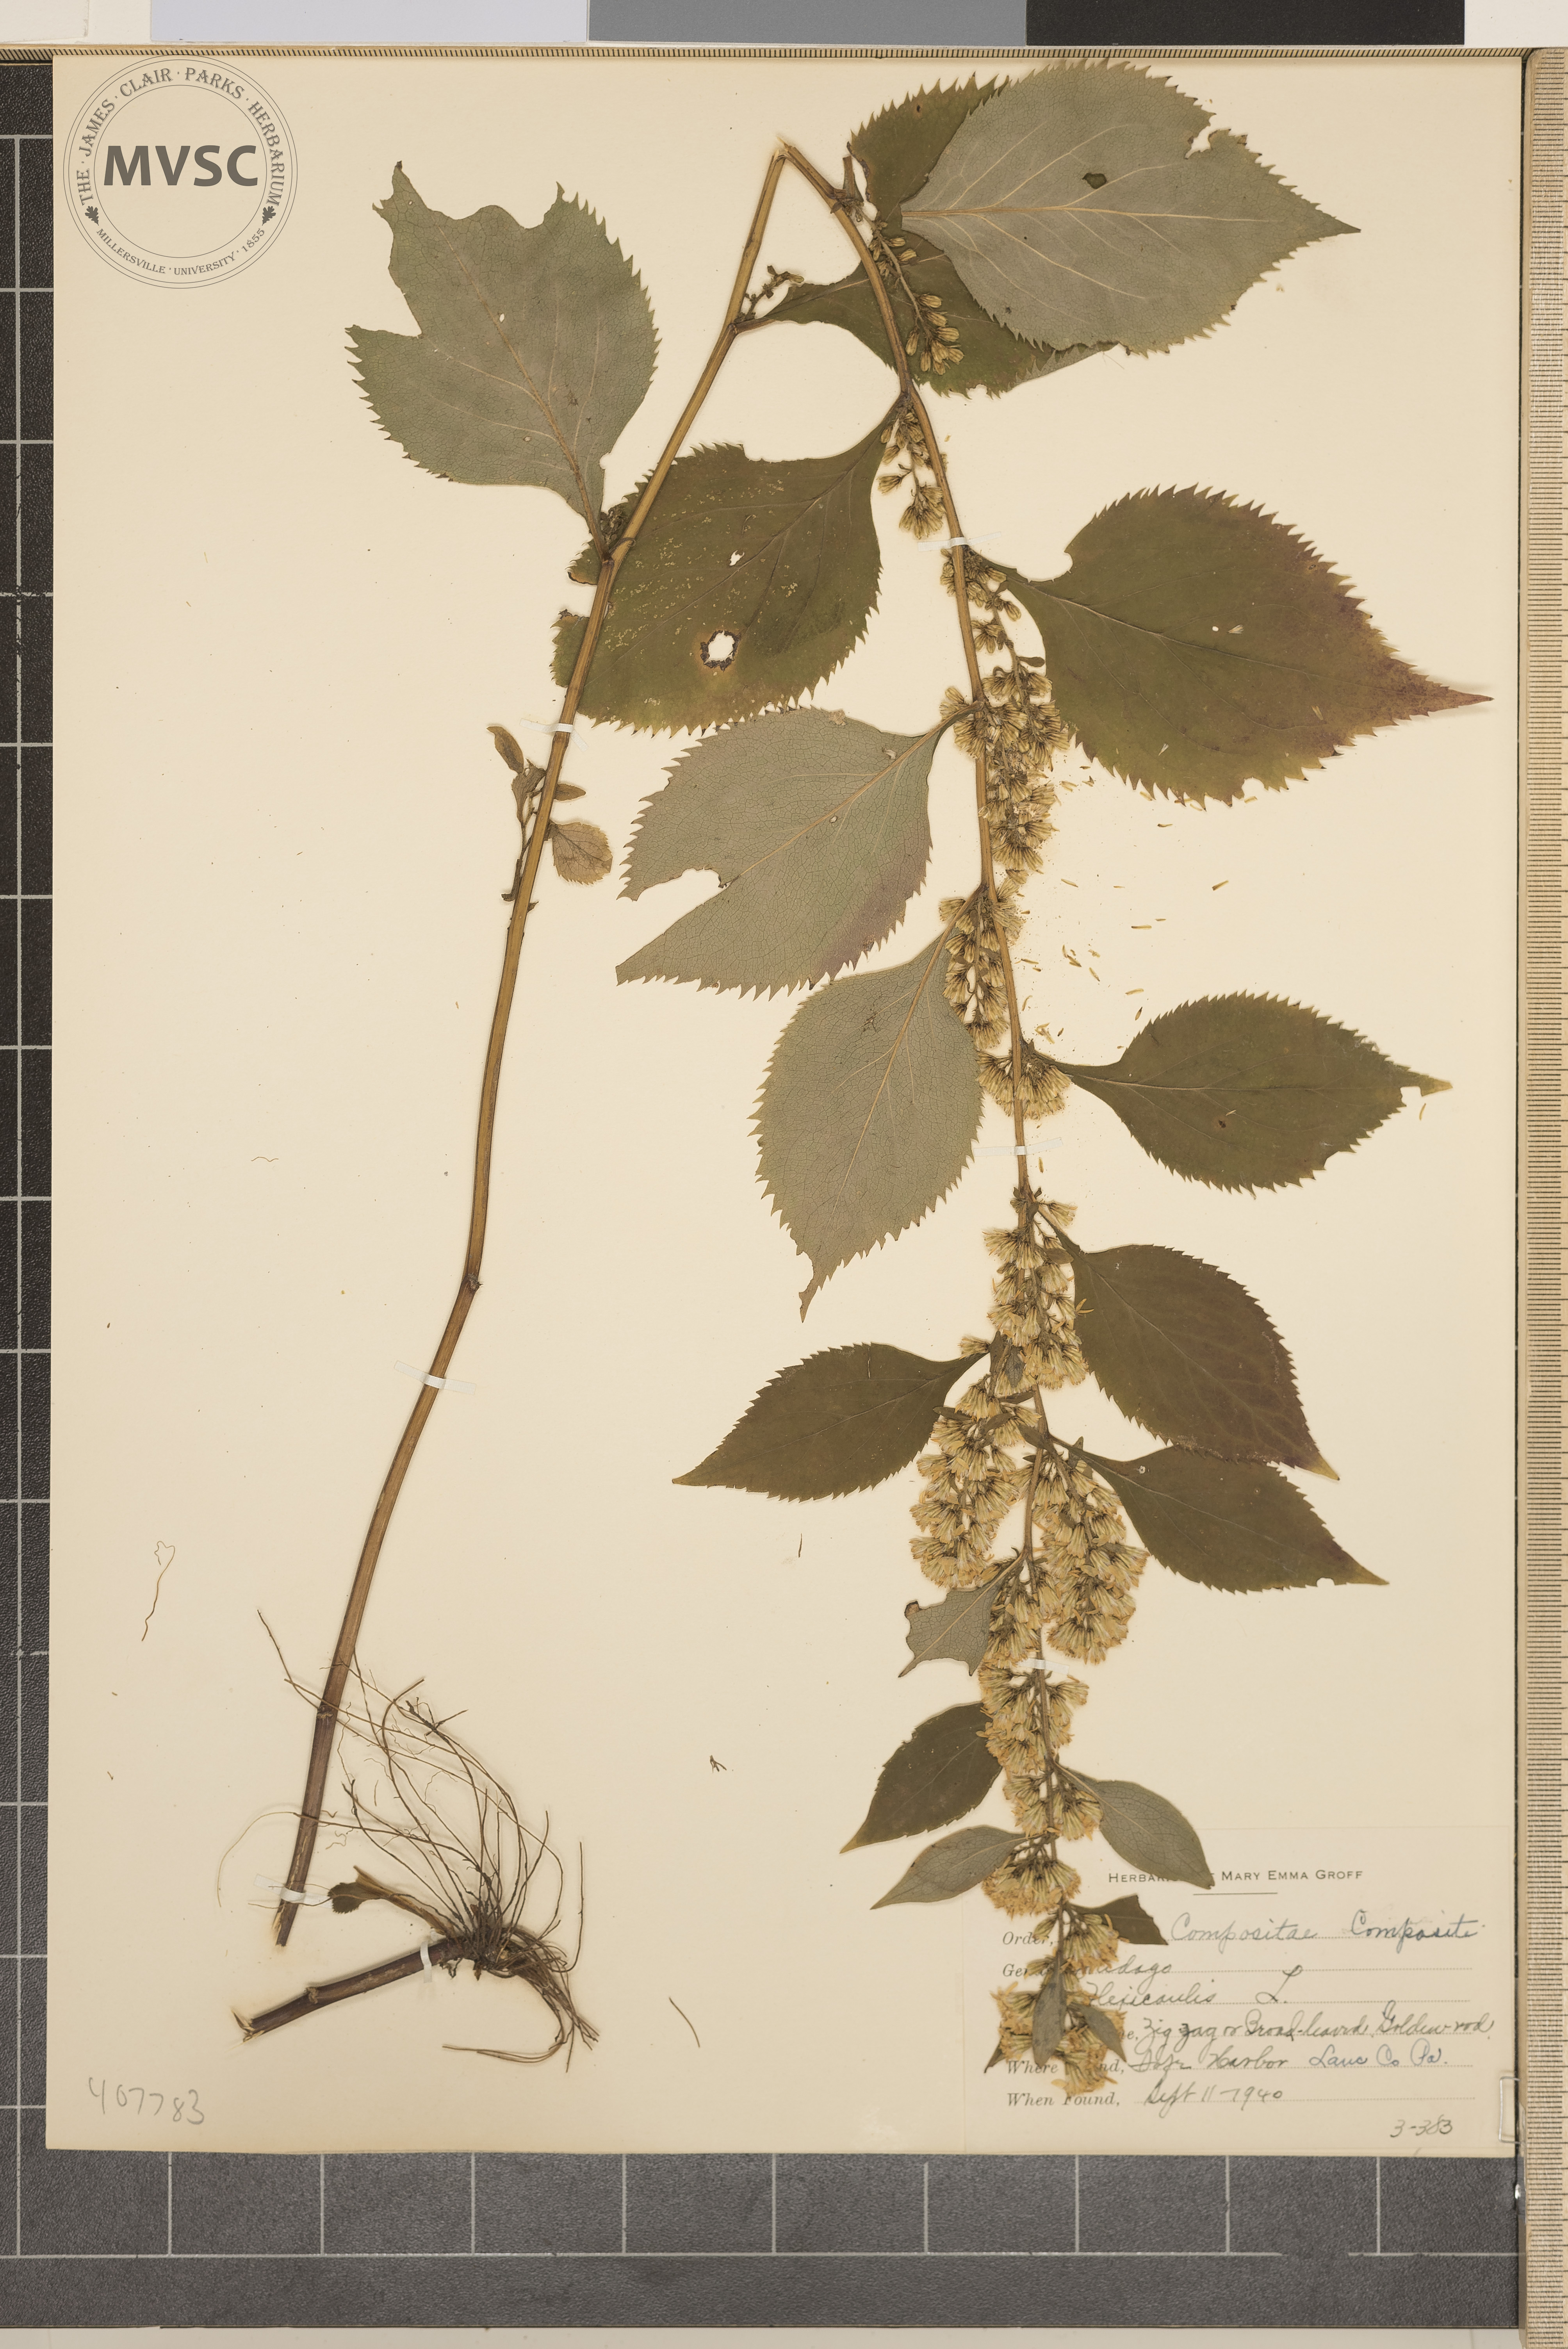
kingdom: Plantae
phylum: Tracheophyta
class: Magnoliopsida
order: Asterales
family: Asteraceae
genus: Solidago
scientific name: Solidago flexicaulis
